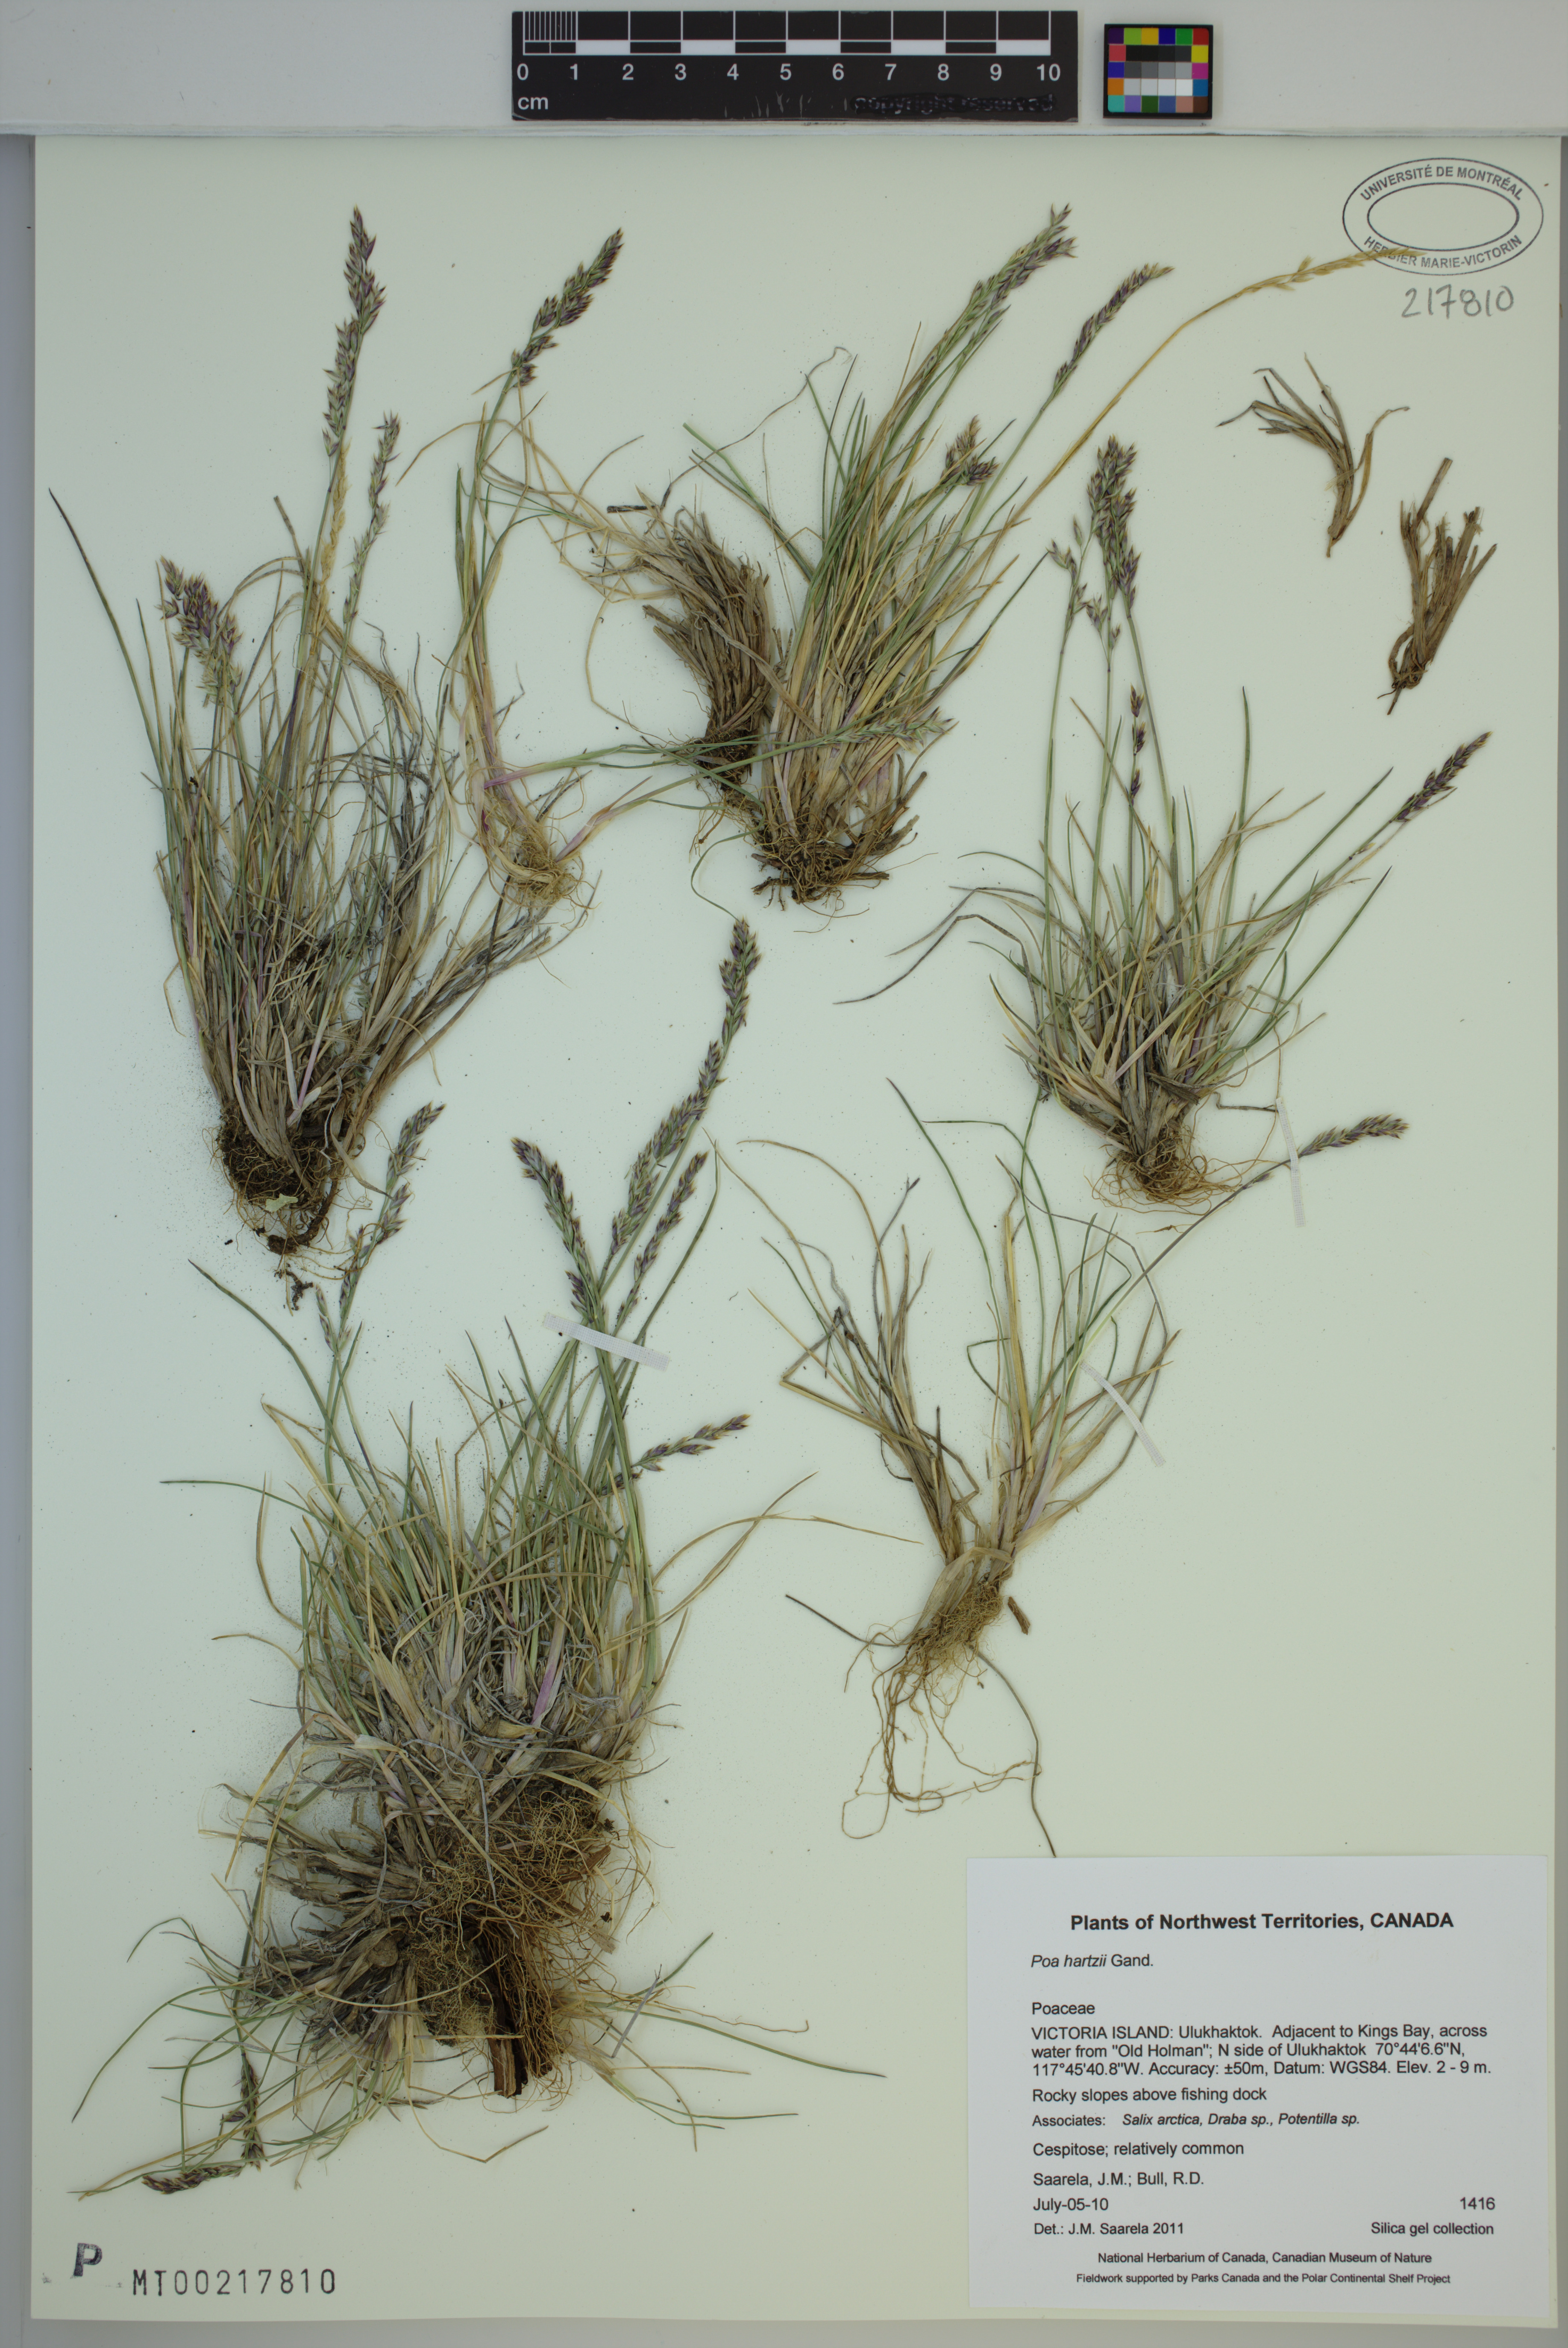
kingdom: Plantae
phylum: Tracheophyta
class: Liliopsida
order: Poales
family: Poaceae
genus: Poa
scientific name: Poa hartzii
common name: Hartz's bluegrass
